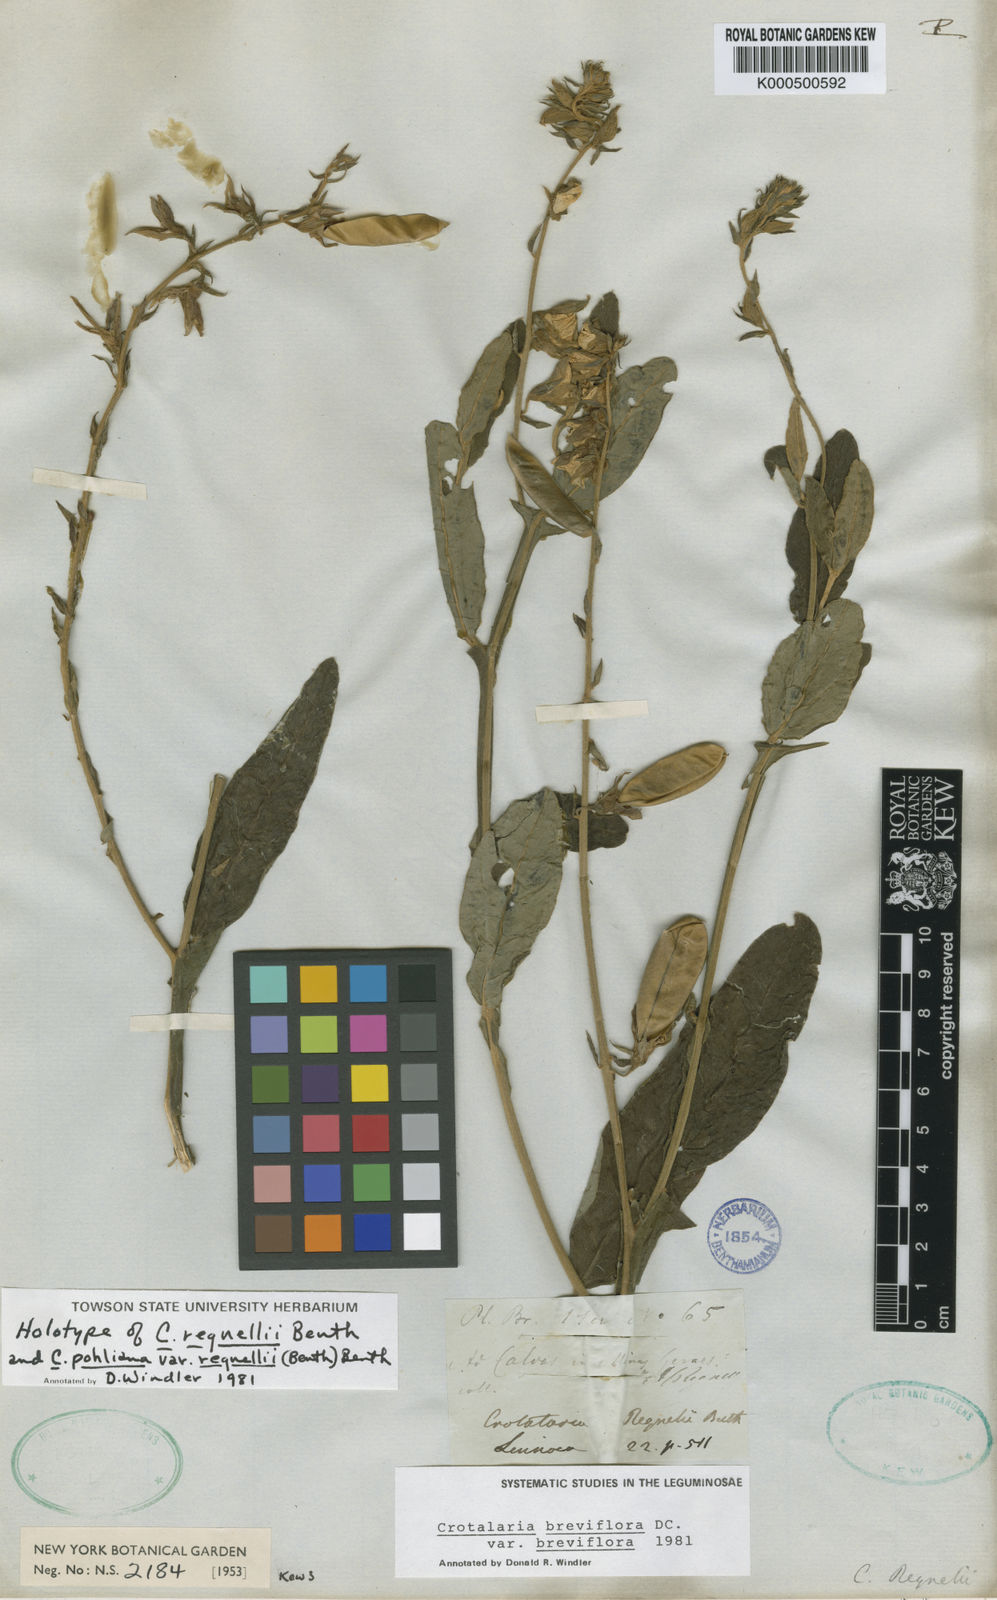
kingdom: Plantae
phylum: Tracheophyta
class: Magnoliopsida
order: Fabales
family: Fabaceae
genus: Crotalaria
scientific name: Crotalaria breviflora
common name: Short-flower crotalaria
